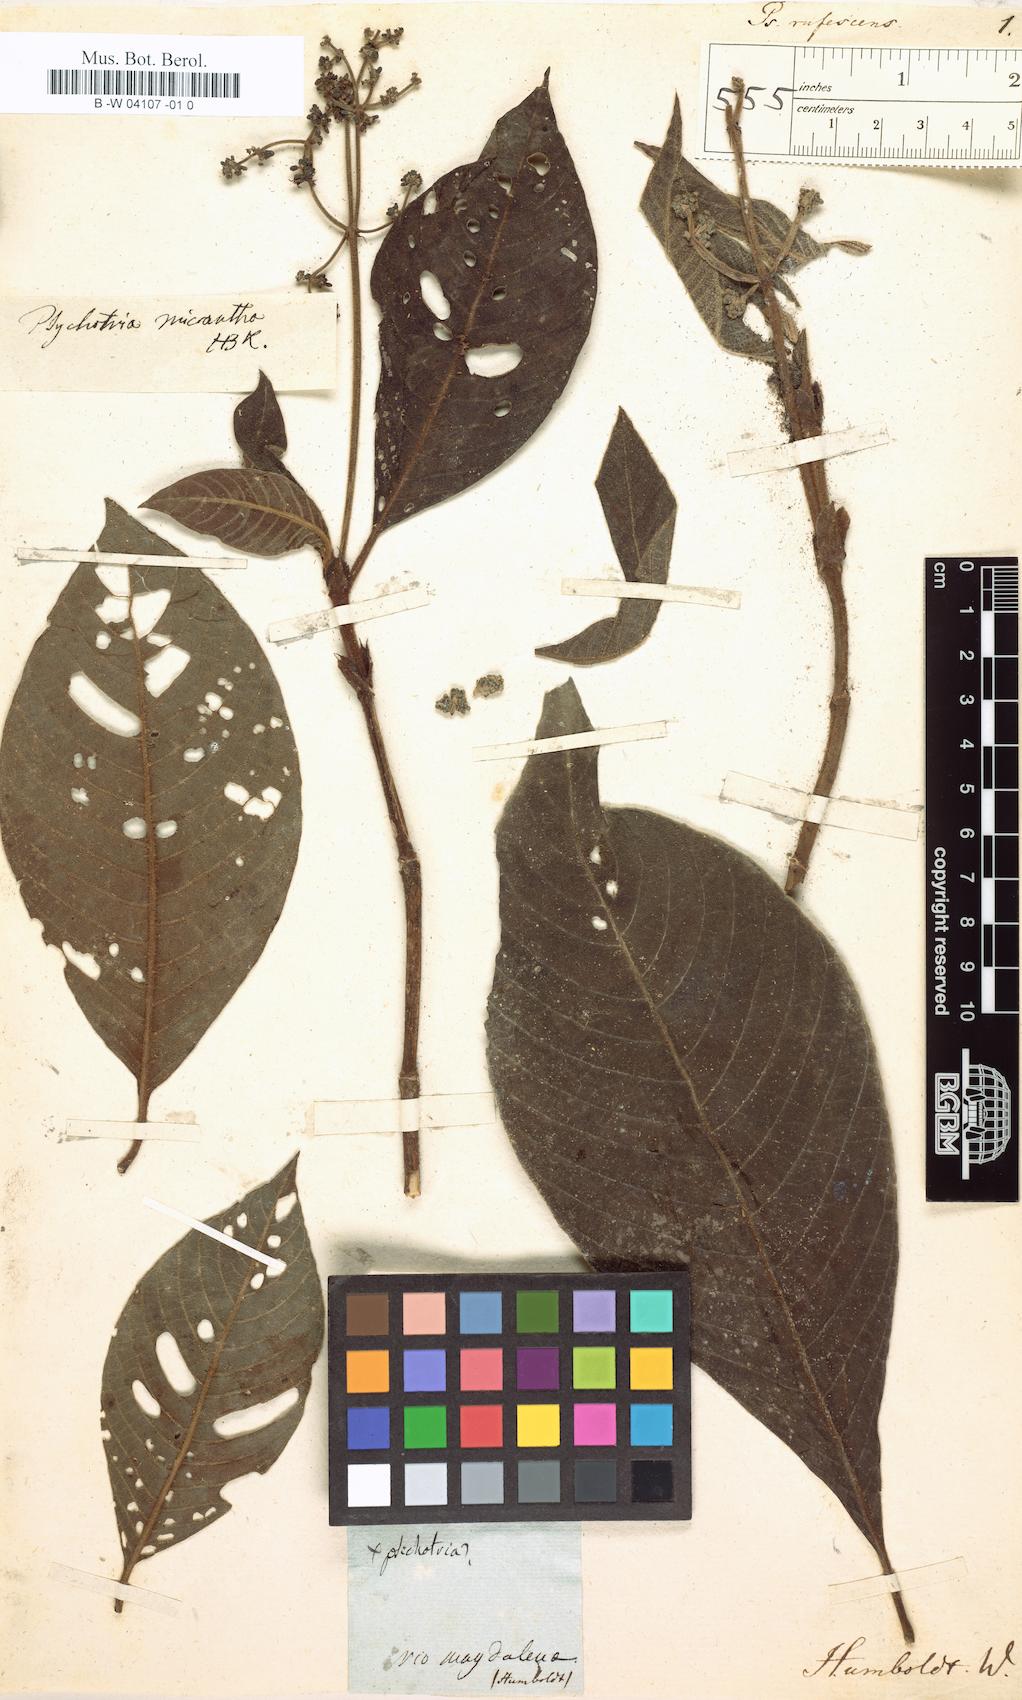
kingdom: Plantae
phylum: Tracheophyta
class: Magnoliopsida
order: Gentianales
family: Rubiaceae
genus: Psychotria
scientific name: Psychotria micrantha
